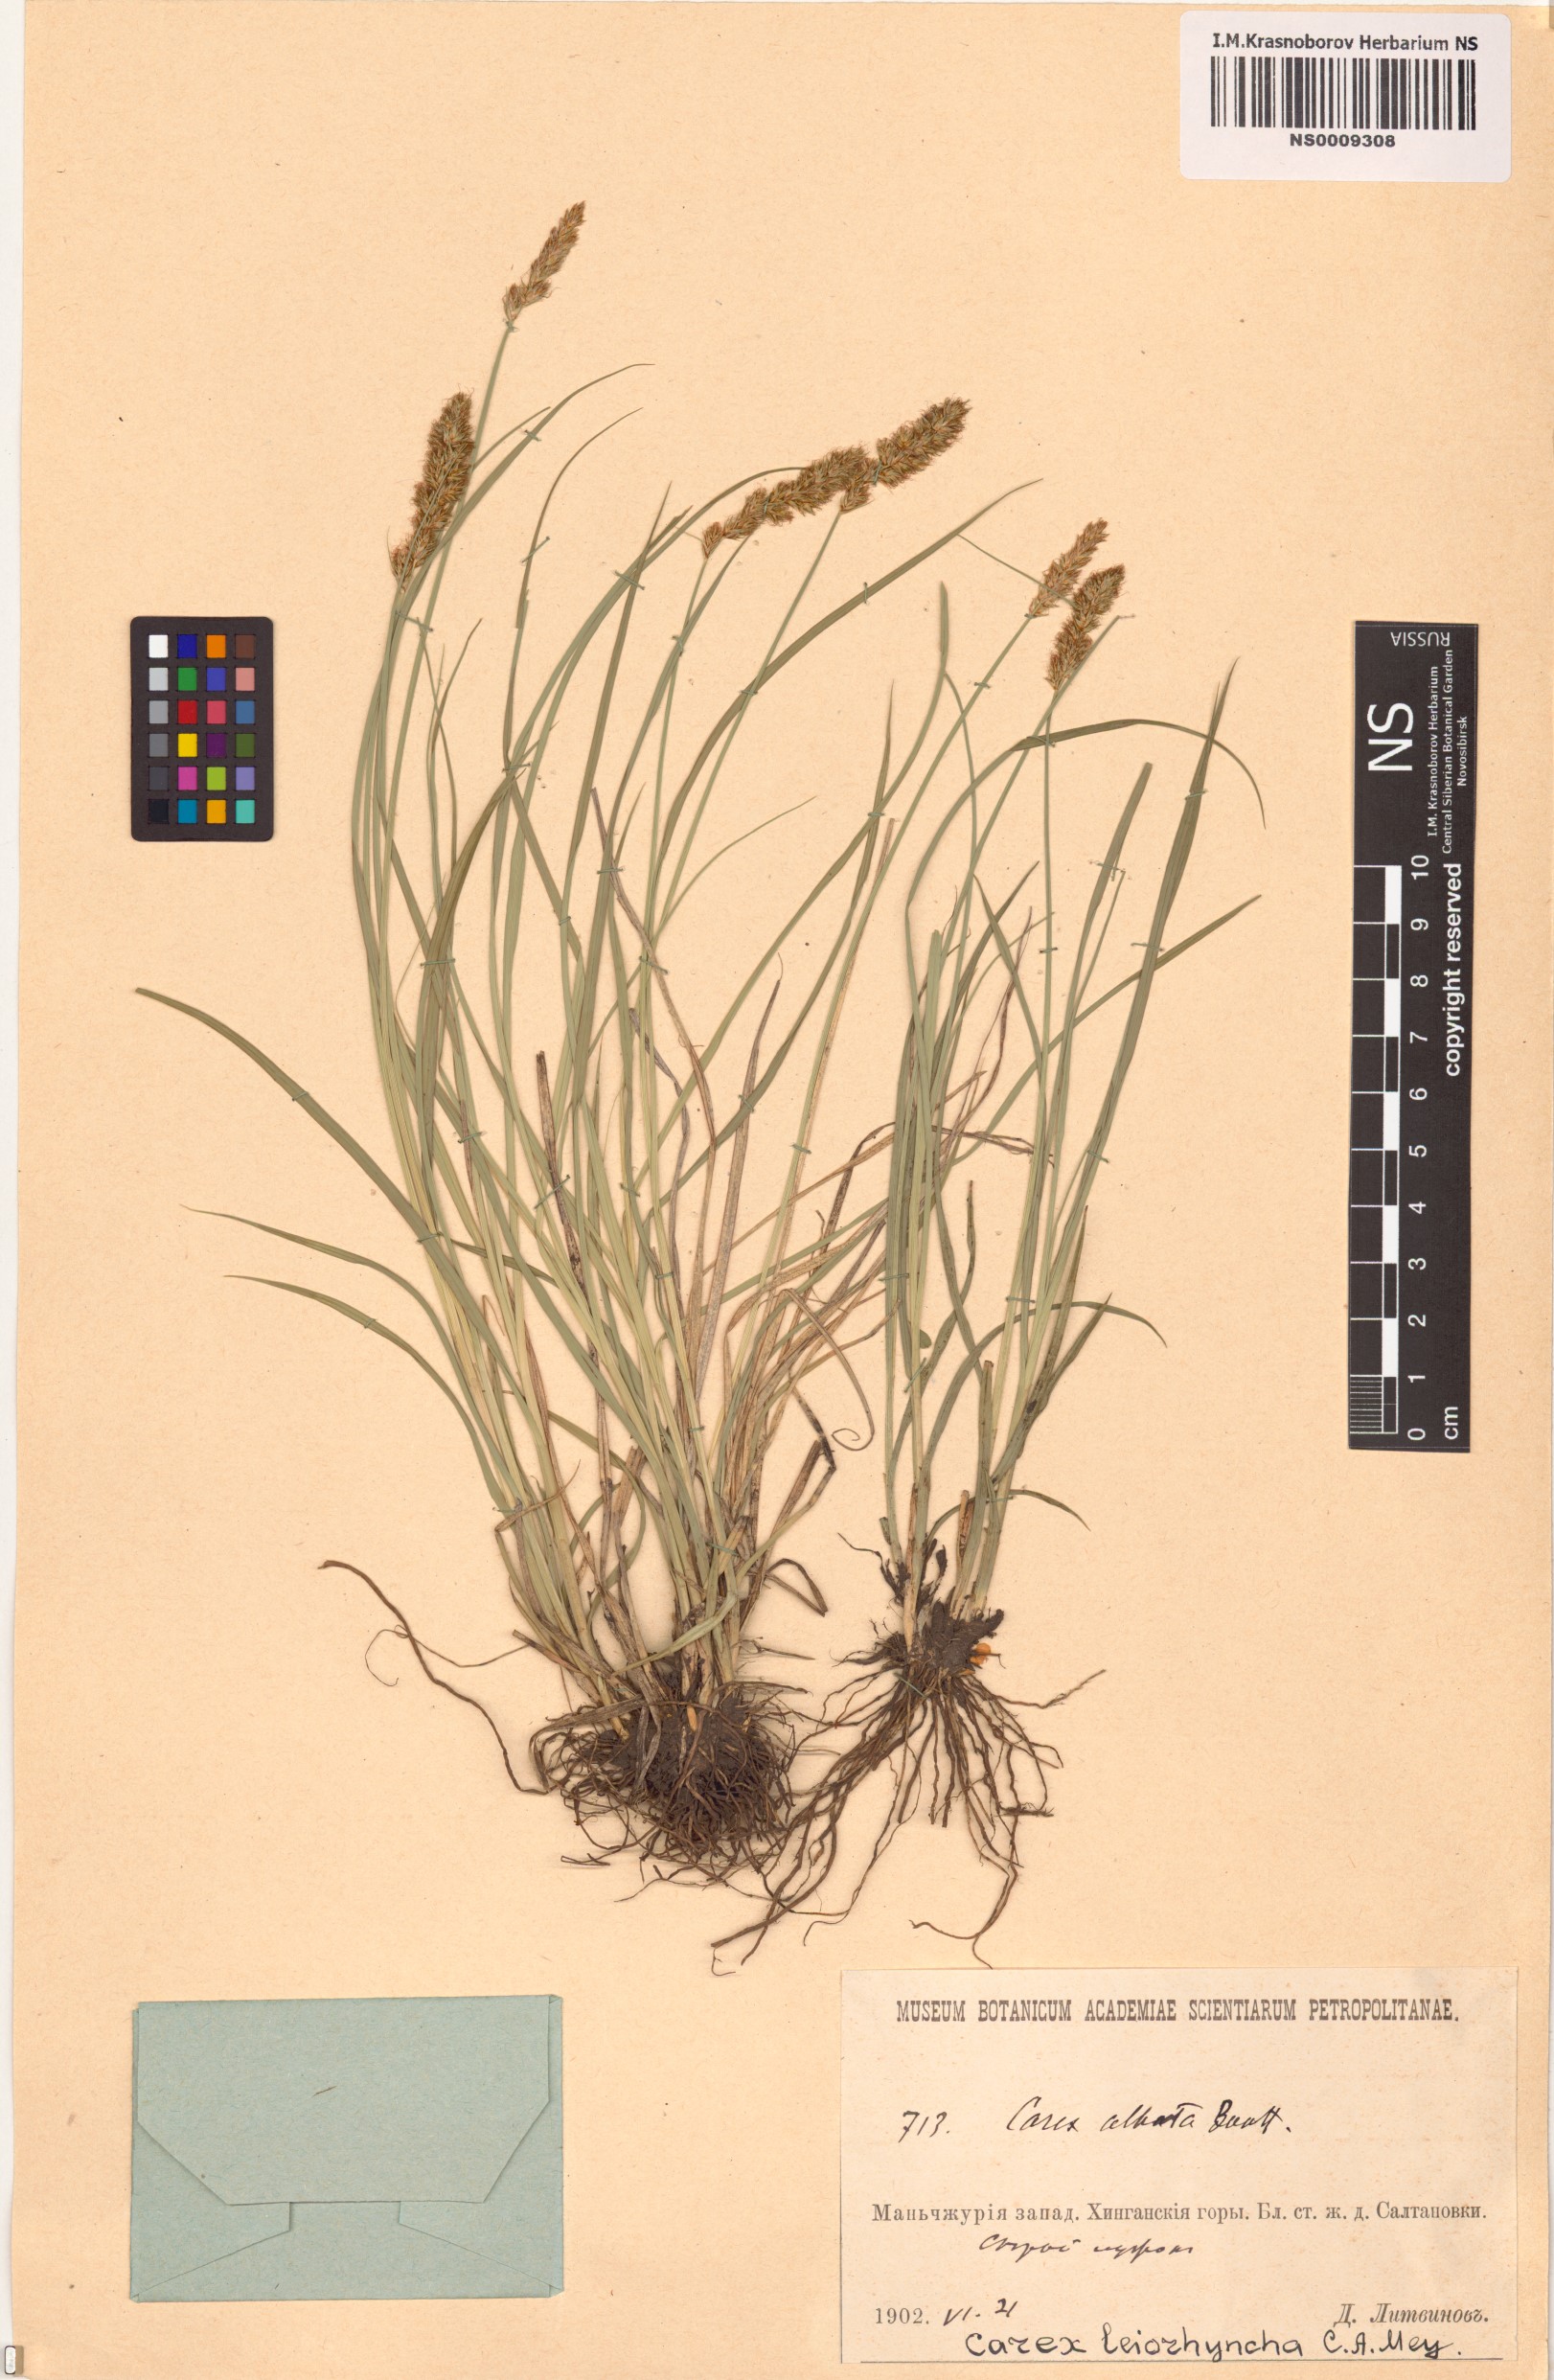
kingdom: Plantae
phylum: Tracheophyta
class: Liliopsida
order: Poales
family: Cyperaceae
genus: Carex
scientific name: Carex leiorhyncha
